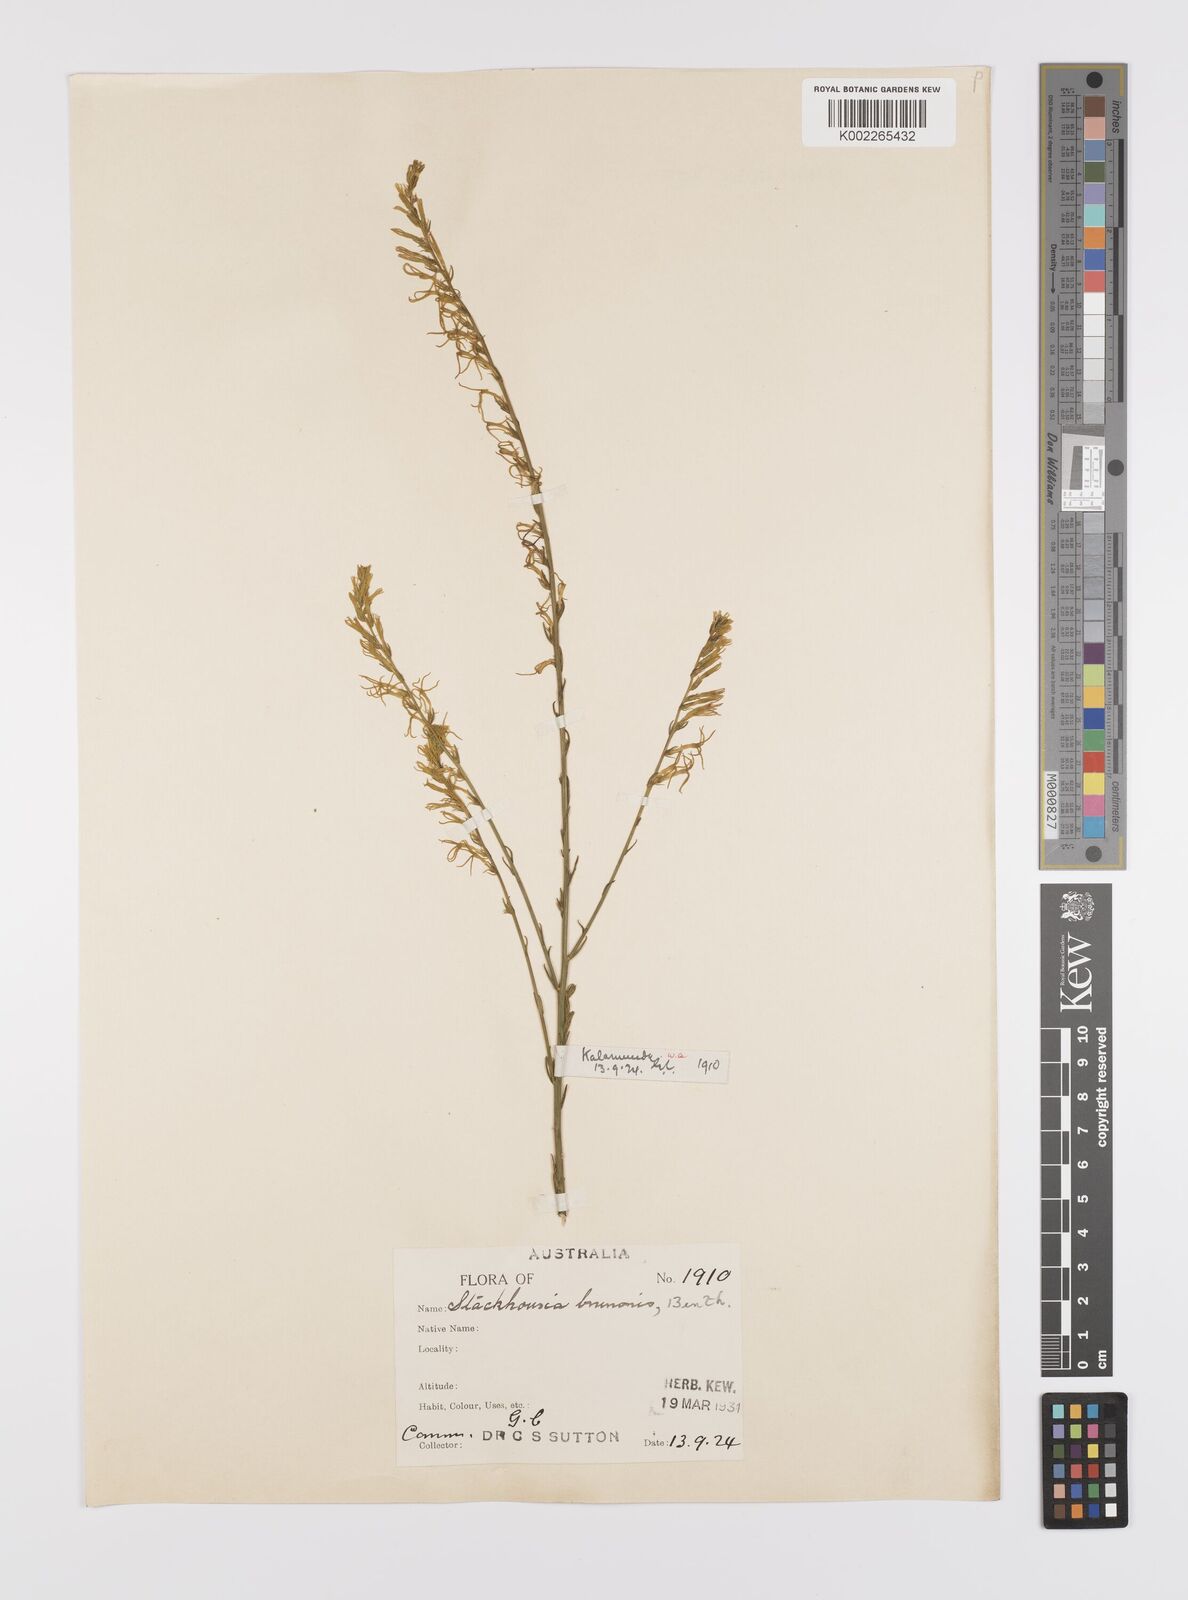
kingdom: Plantae
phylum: Tracheophyta
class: Magnoliopsida
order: Celastrales
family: Celastraceae
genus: Tripterococcus
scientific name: Tripterococcus brunonis
